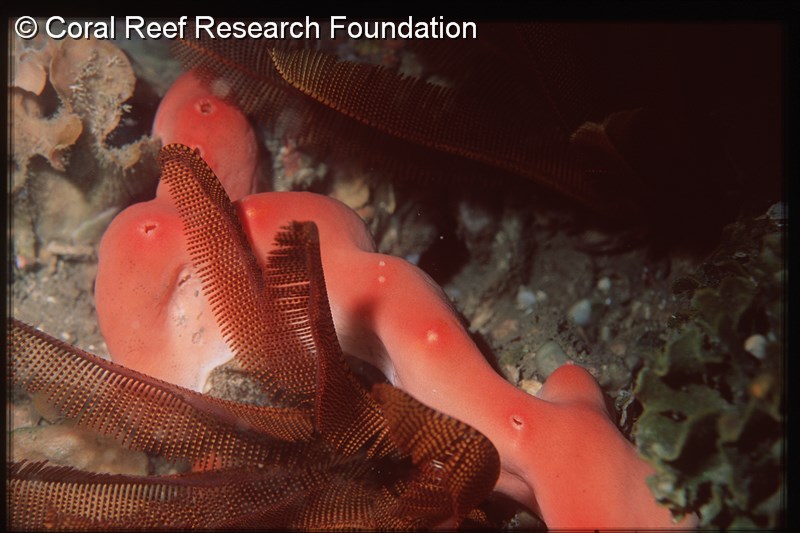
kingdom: Animalia
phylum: Chordata
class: Ascidiacea
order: Aplousobranchia
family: Didemnidae
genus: Polysyncraton
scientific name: Polysyncraton magnilarvum
